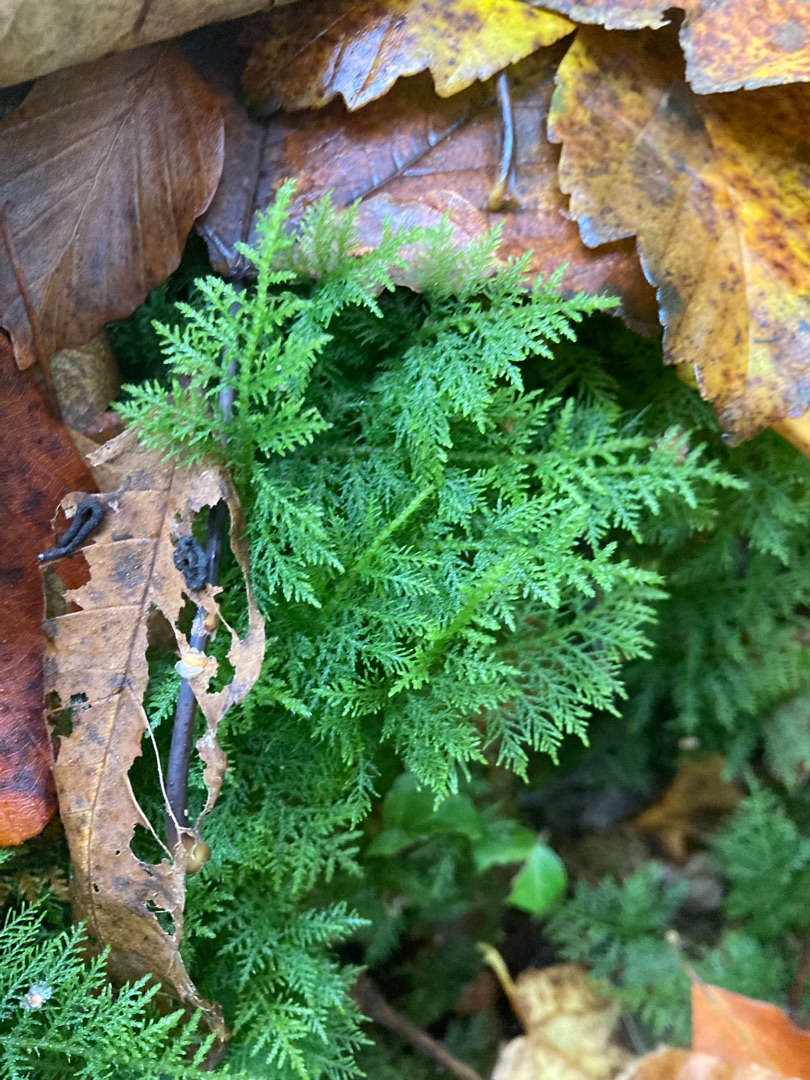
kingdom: Plantae
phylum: Bryophyta
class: Bryopsida
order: Hypnales
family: Thuidiaceae
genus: Thuidium
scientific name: Thuidium tamariscinum
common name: Pryd-bregnemos
